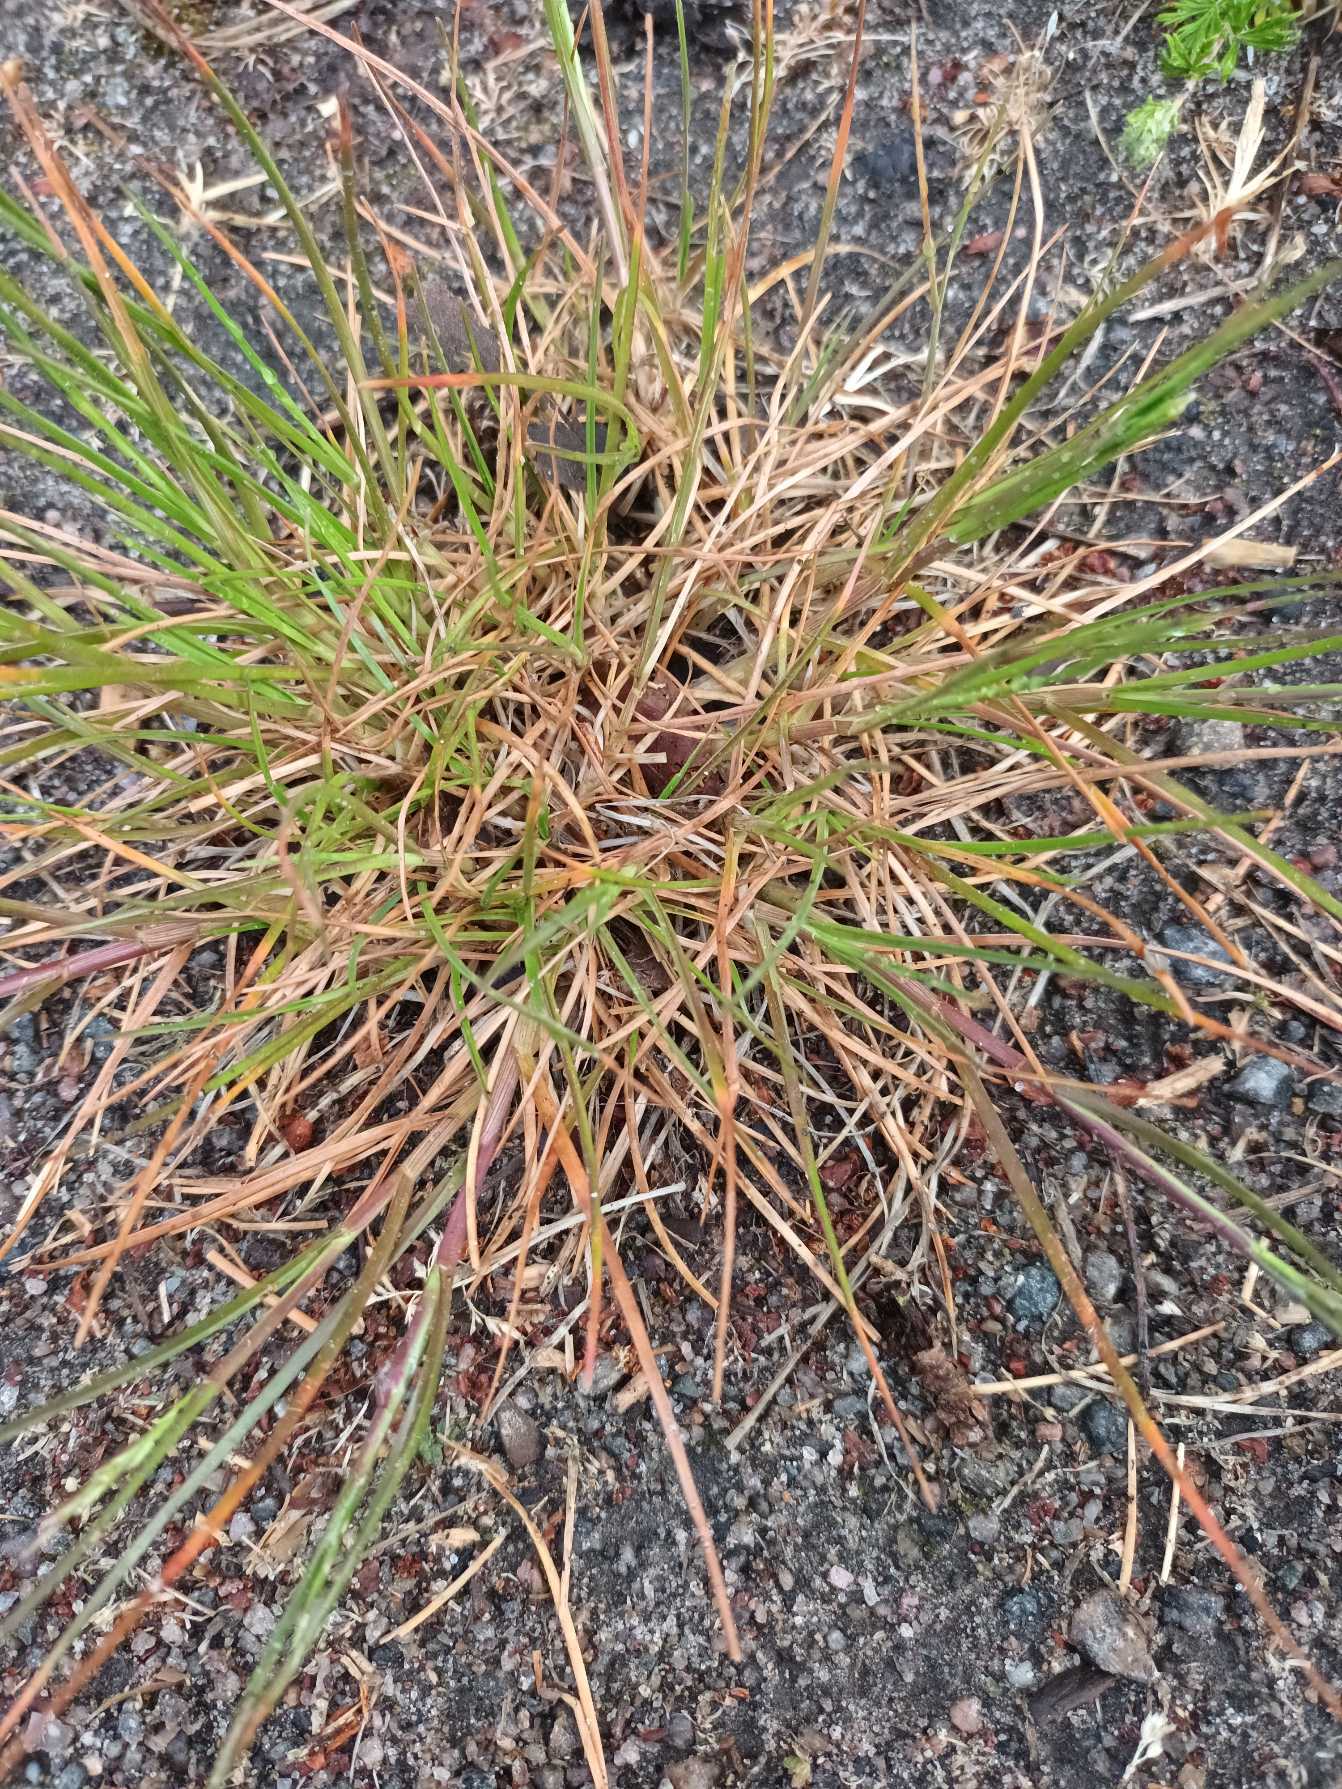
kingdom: Plantae
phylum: Tracheophyta
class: Liliopsida
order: Poales
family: Poaceae
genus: Festuca
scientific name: Festuca trachyphylla
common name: Bakke-svingel
